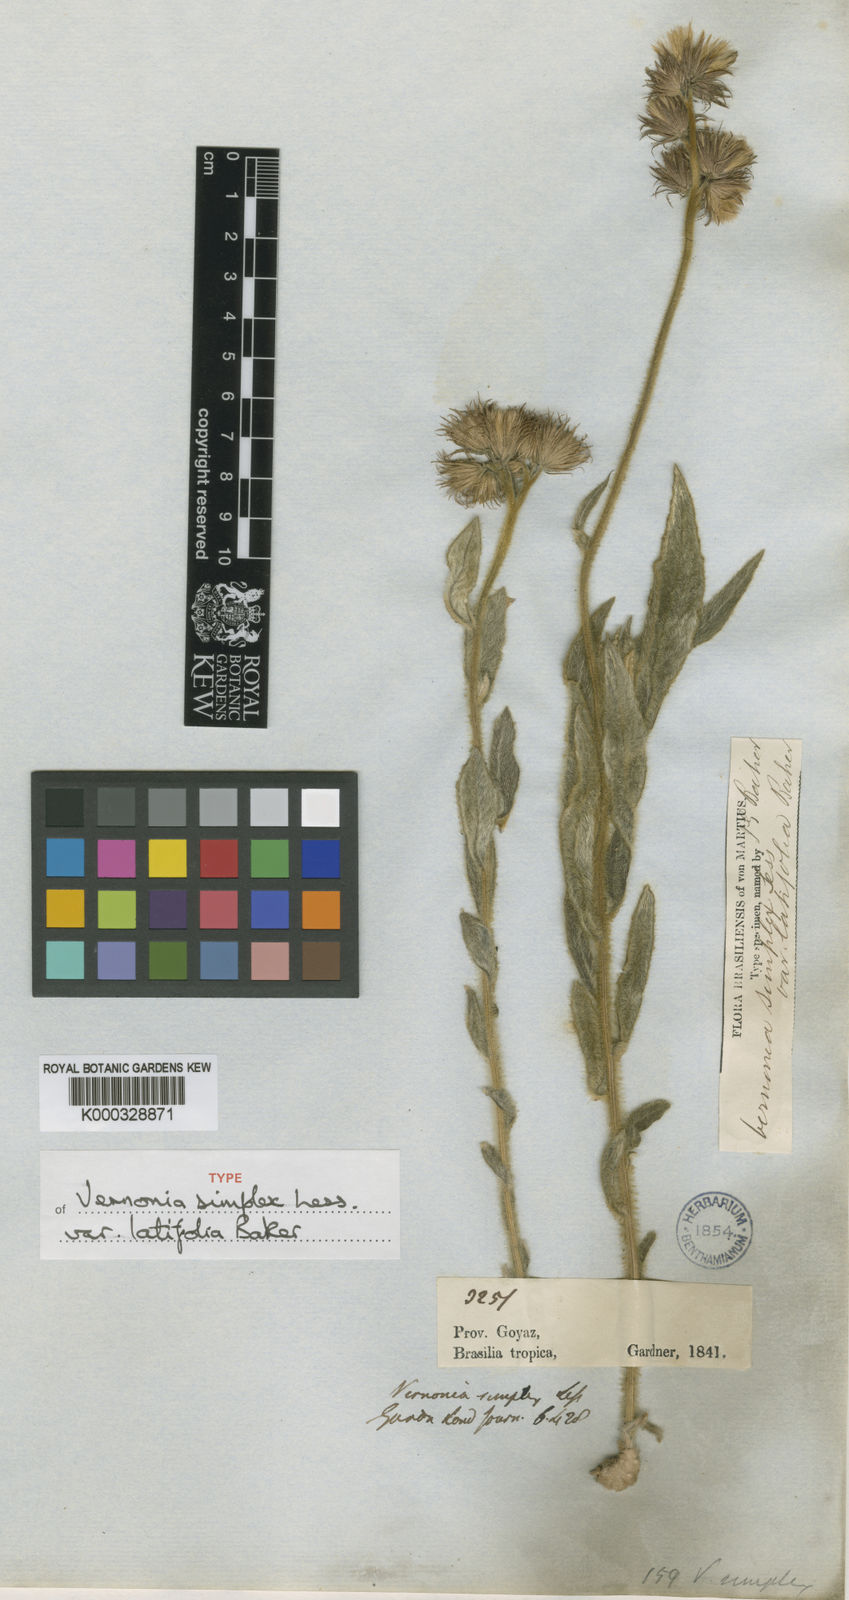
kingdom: Plantae
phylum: Tracheophyta
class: Magnoliopsida
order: Asterales
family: Asteraceae
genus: Chrysolaena
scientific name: Chrysolaena simplex
